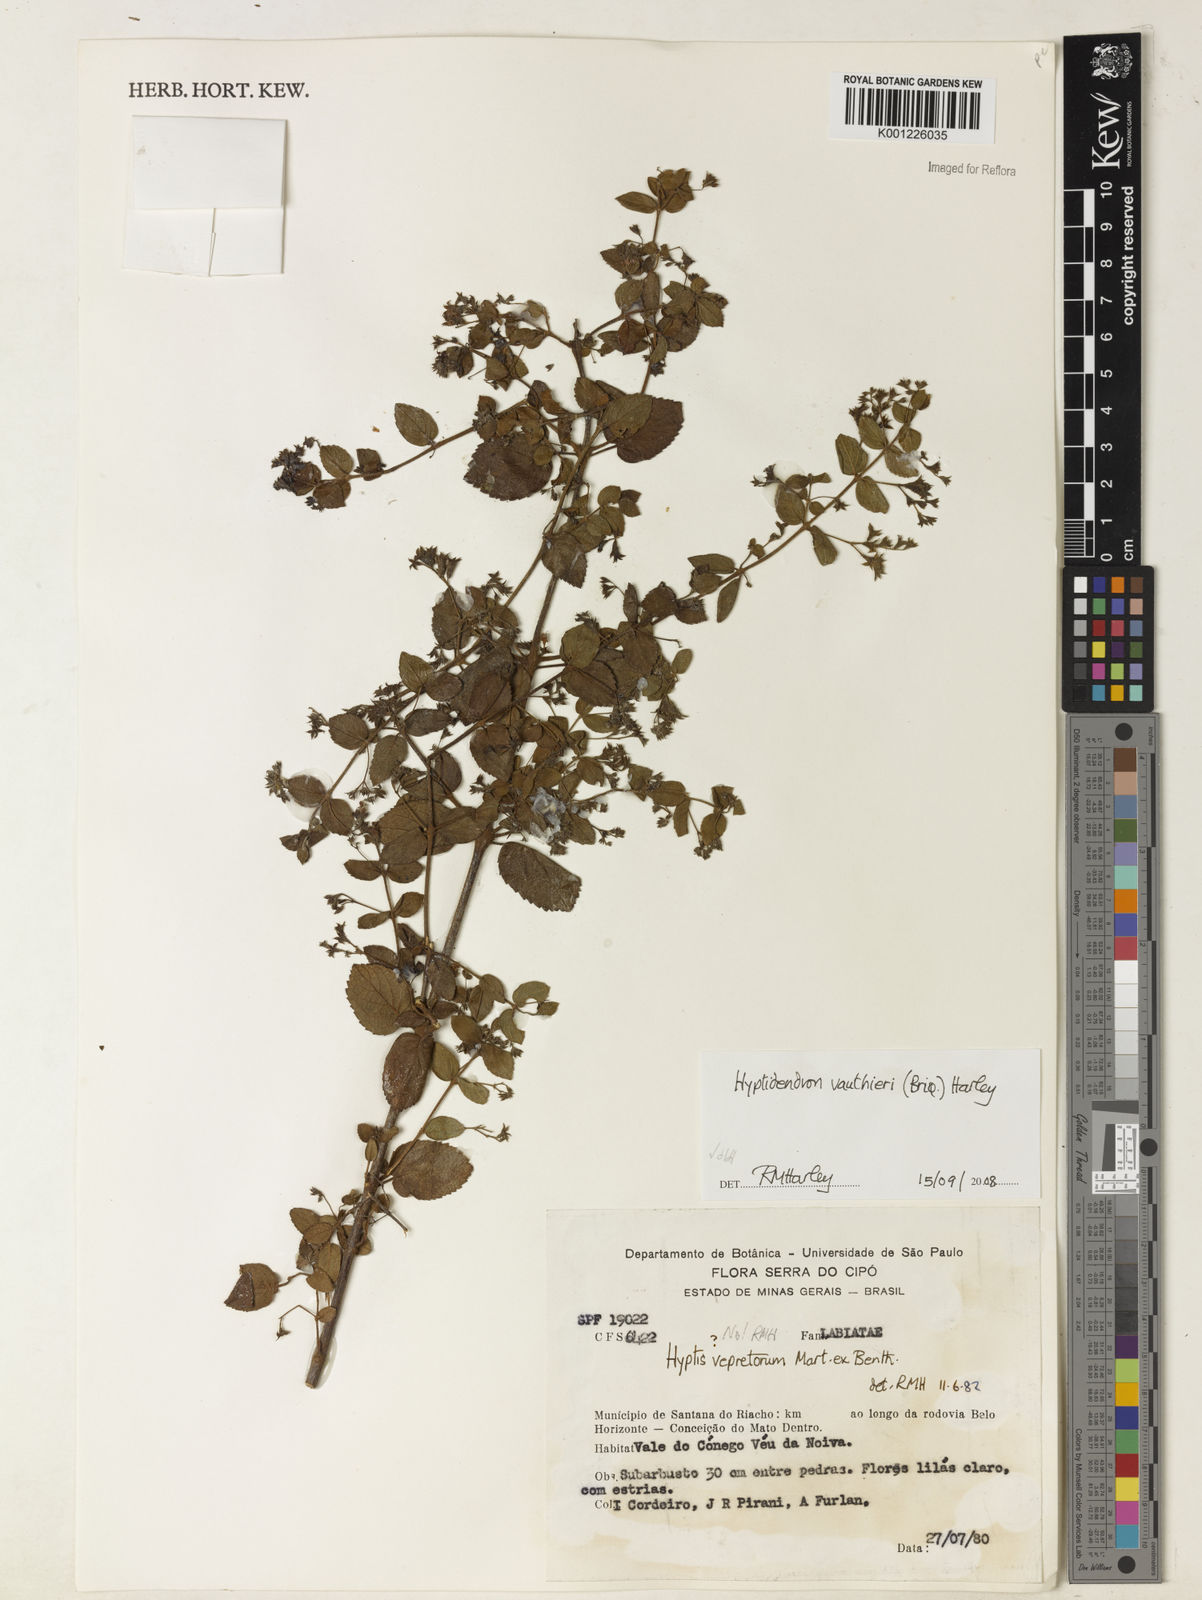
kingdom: Plantae
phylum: Tracheophyta
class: Magnoliopsida
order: Lamiales
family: Lamiaceae
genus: Hyptidendron
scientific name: Hyptidendron vauthieri
